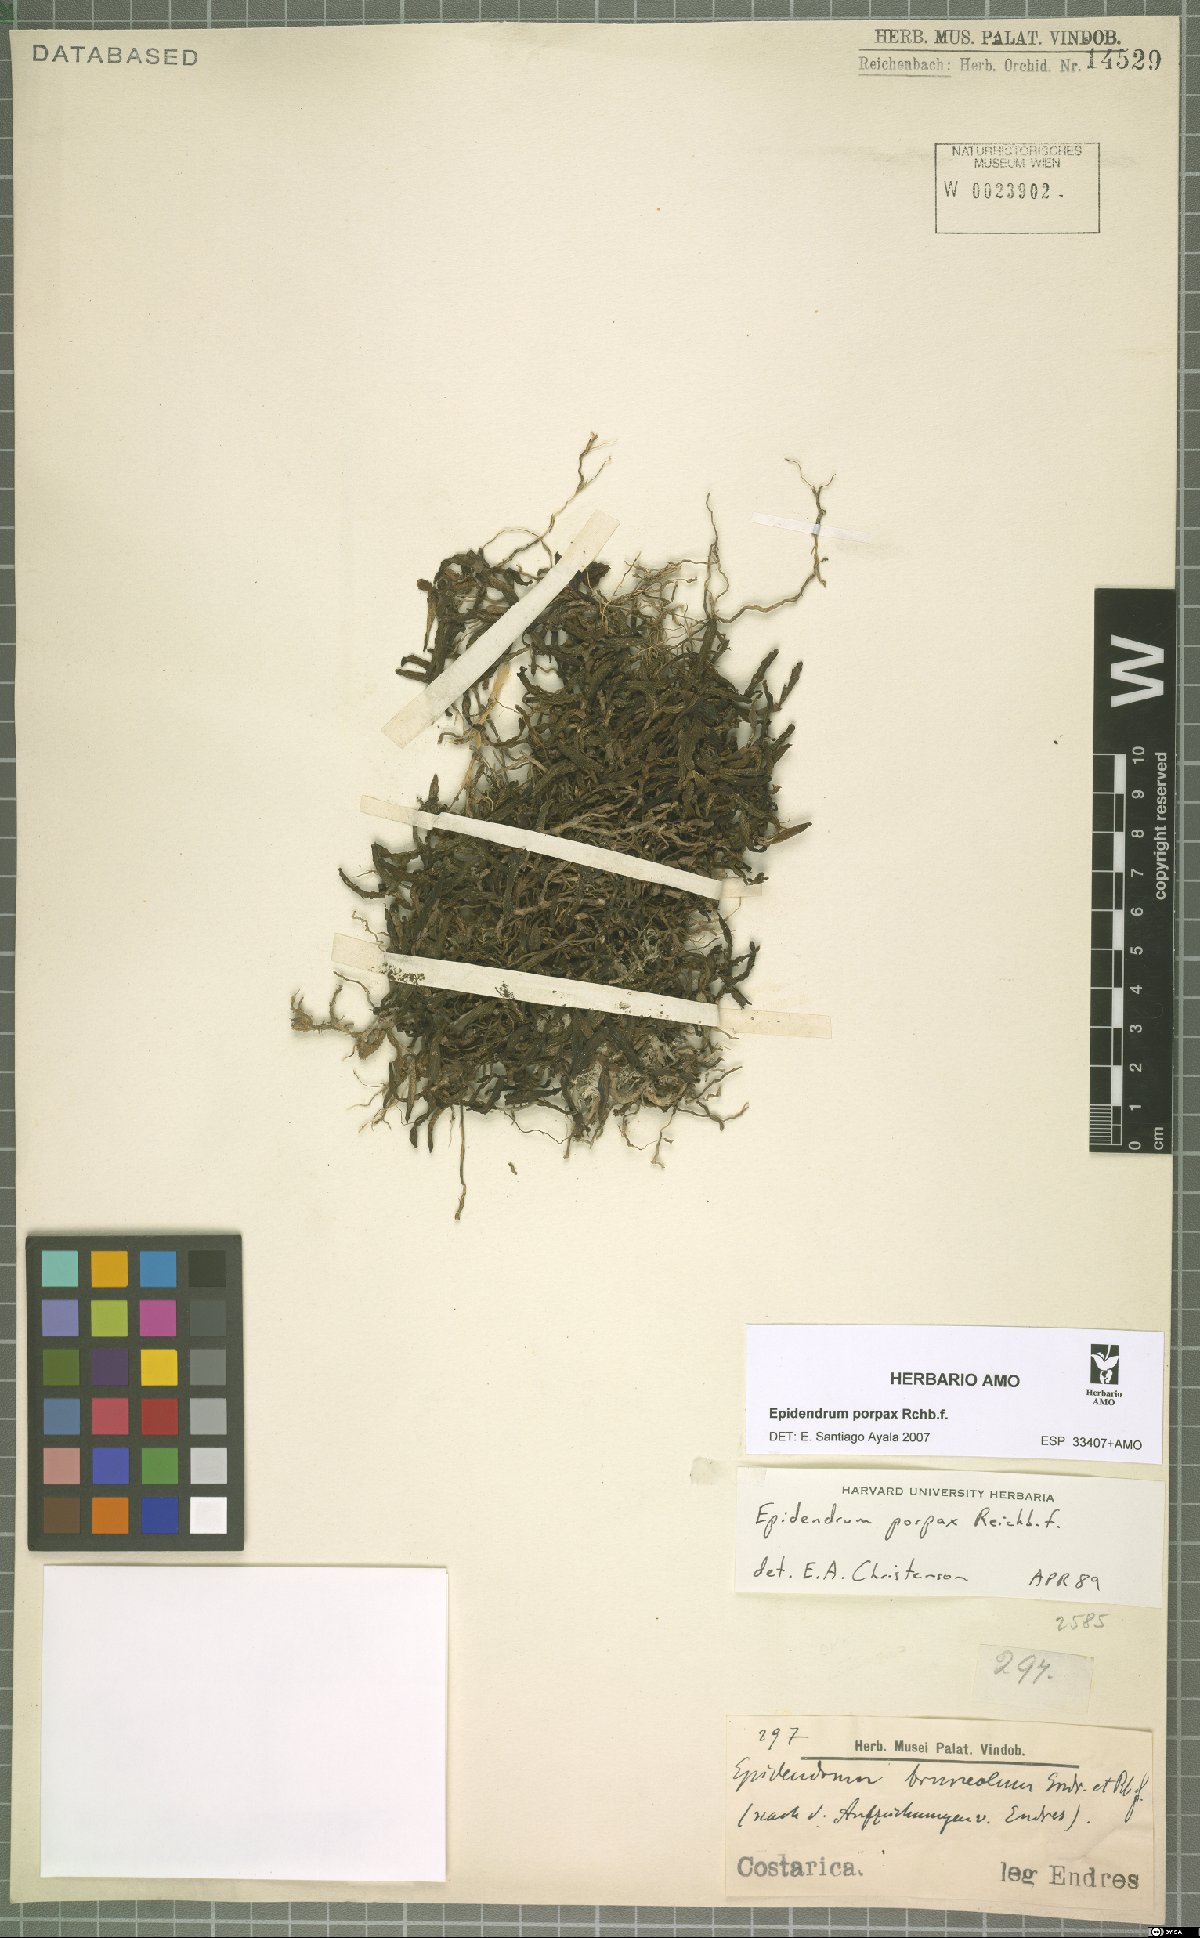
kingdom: Plantae
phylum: Tracheophyta
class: Liliopsida
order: Asparagales
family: Orchidaceae
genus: Epidendrum
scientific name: Epidendrum porpax
